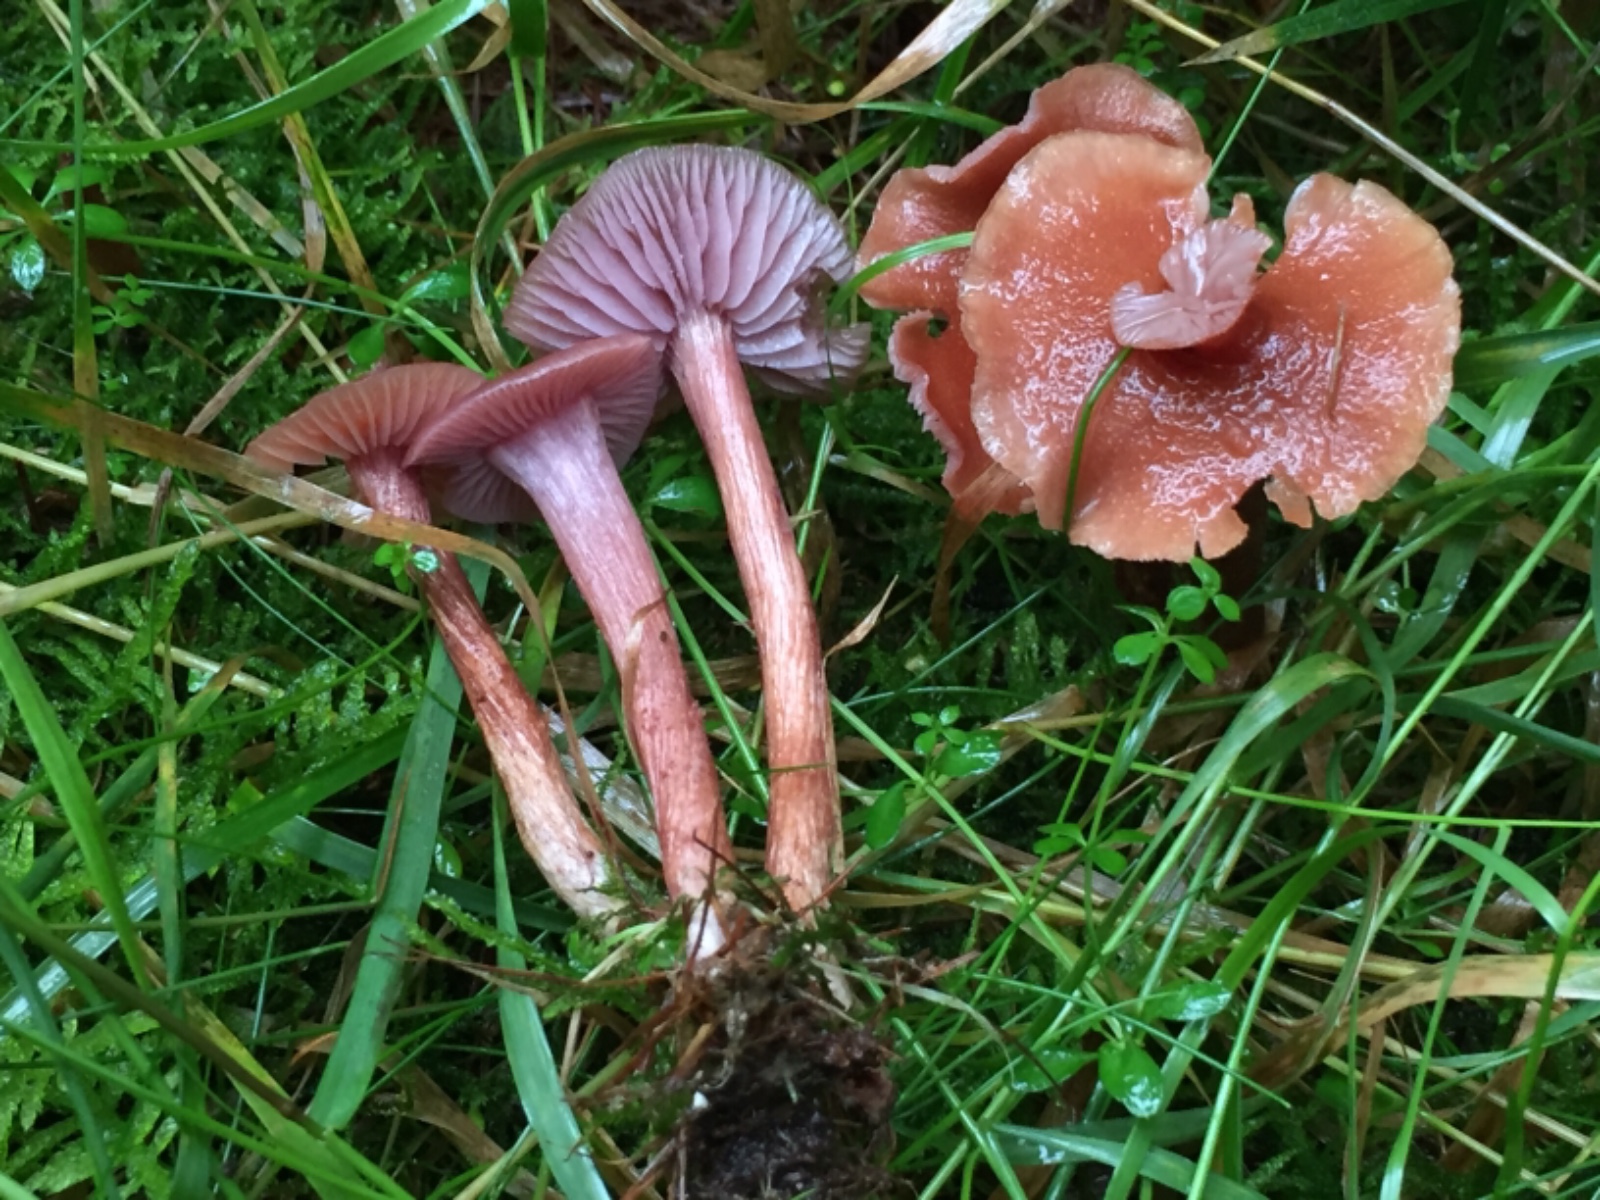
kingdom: Fungi
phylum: Basidiomycota
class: Agaricomycetes
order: Agaricales
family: Hydnangiaceae
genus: Laccaria
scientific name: Laccaria bicolor
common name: tvefarvet ametysthat
